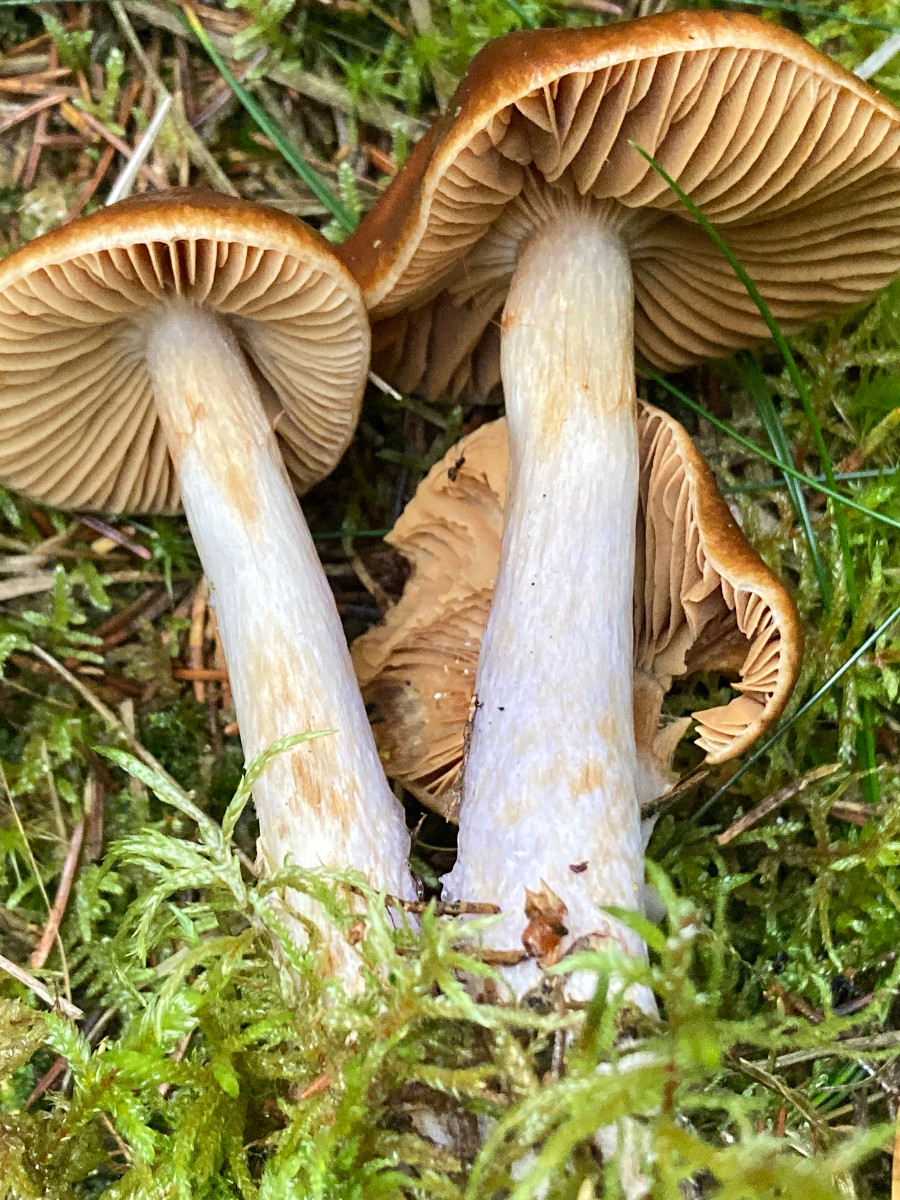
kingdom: Fungi
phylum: Basidiomycota
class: Agaricomycetes
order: Agaricales
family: Cortinariaceae
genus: Cortinarius
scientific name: Cortinarius collinitus
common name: spættet slørhat
